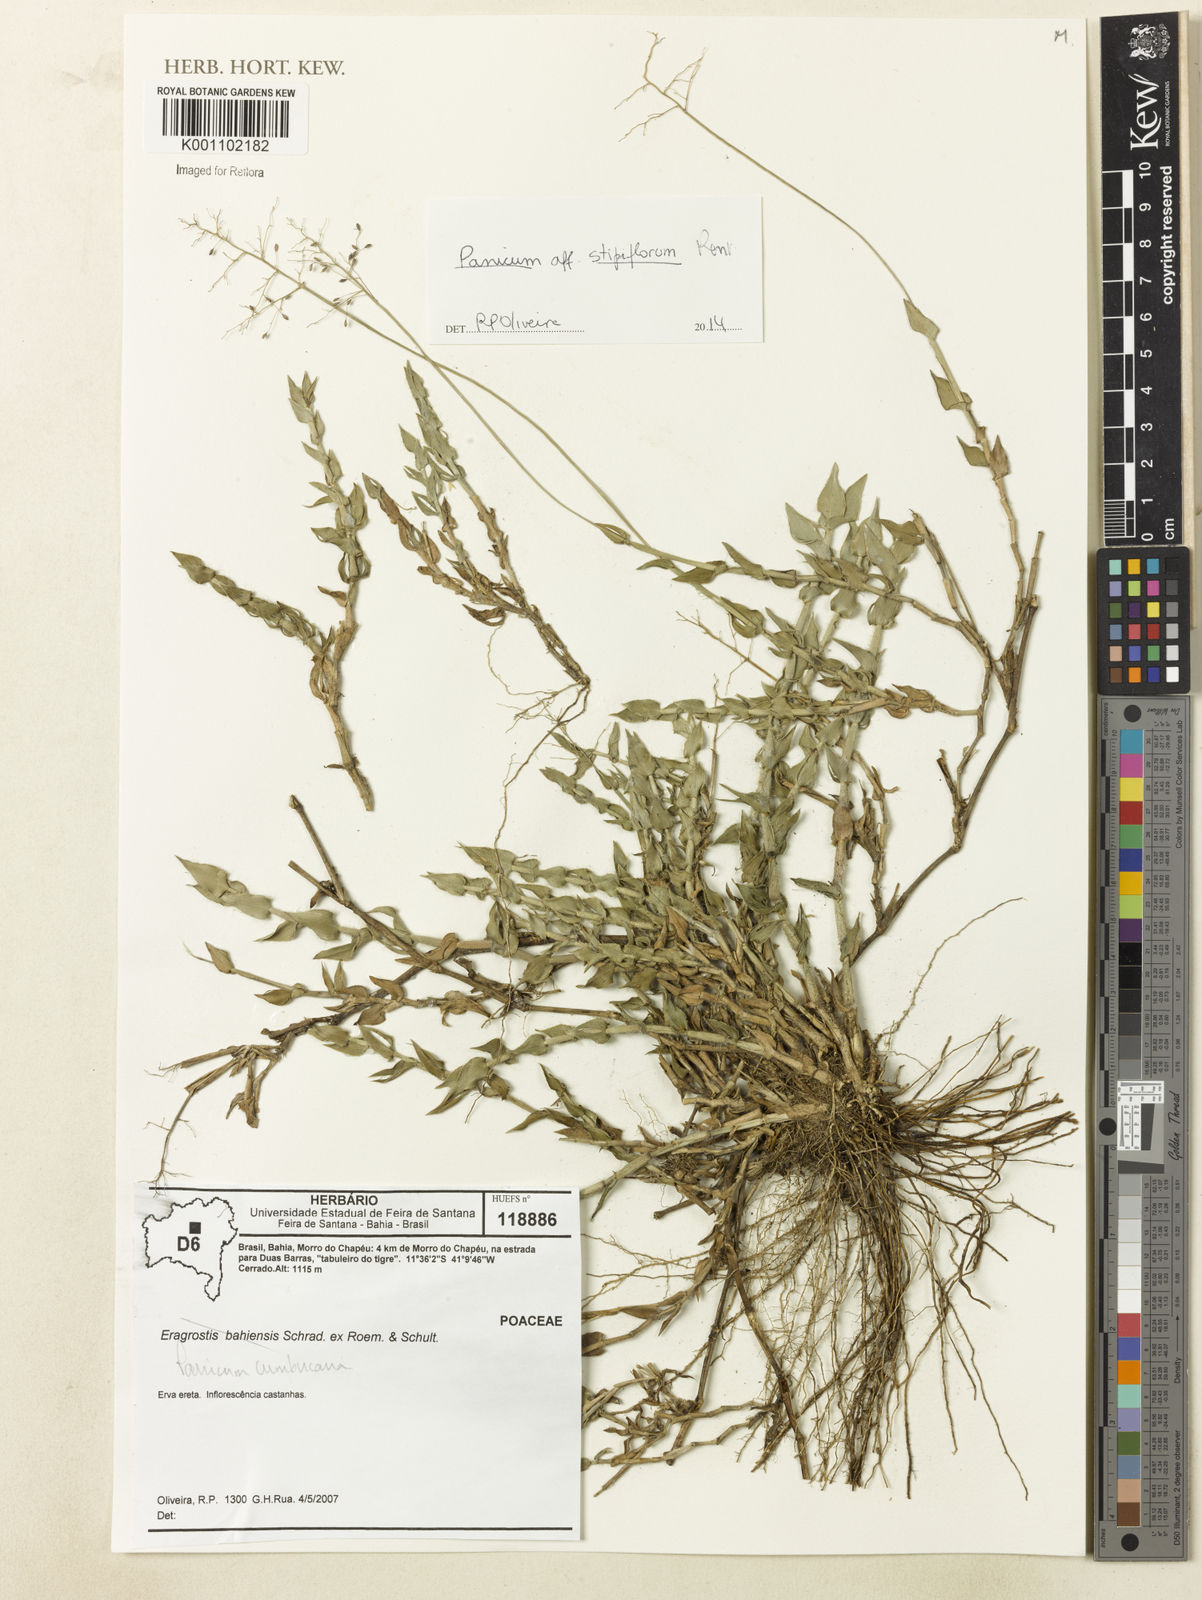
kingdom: Plantae
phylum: Tracheophyta
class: Liliopsida
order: Poales
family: Poaceae
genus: Dichanthelium
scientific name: Dichanthelium stipiflorum
